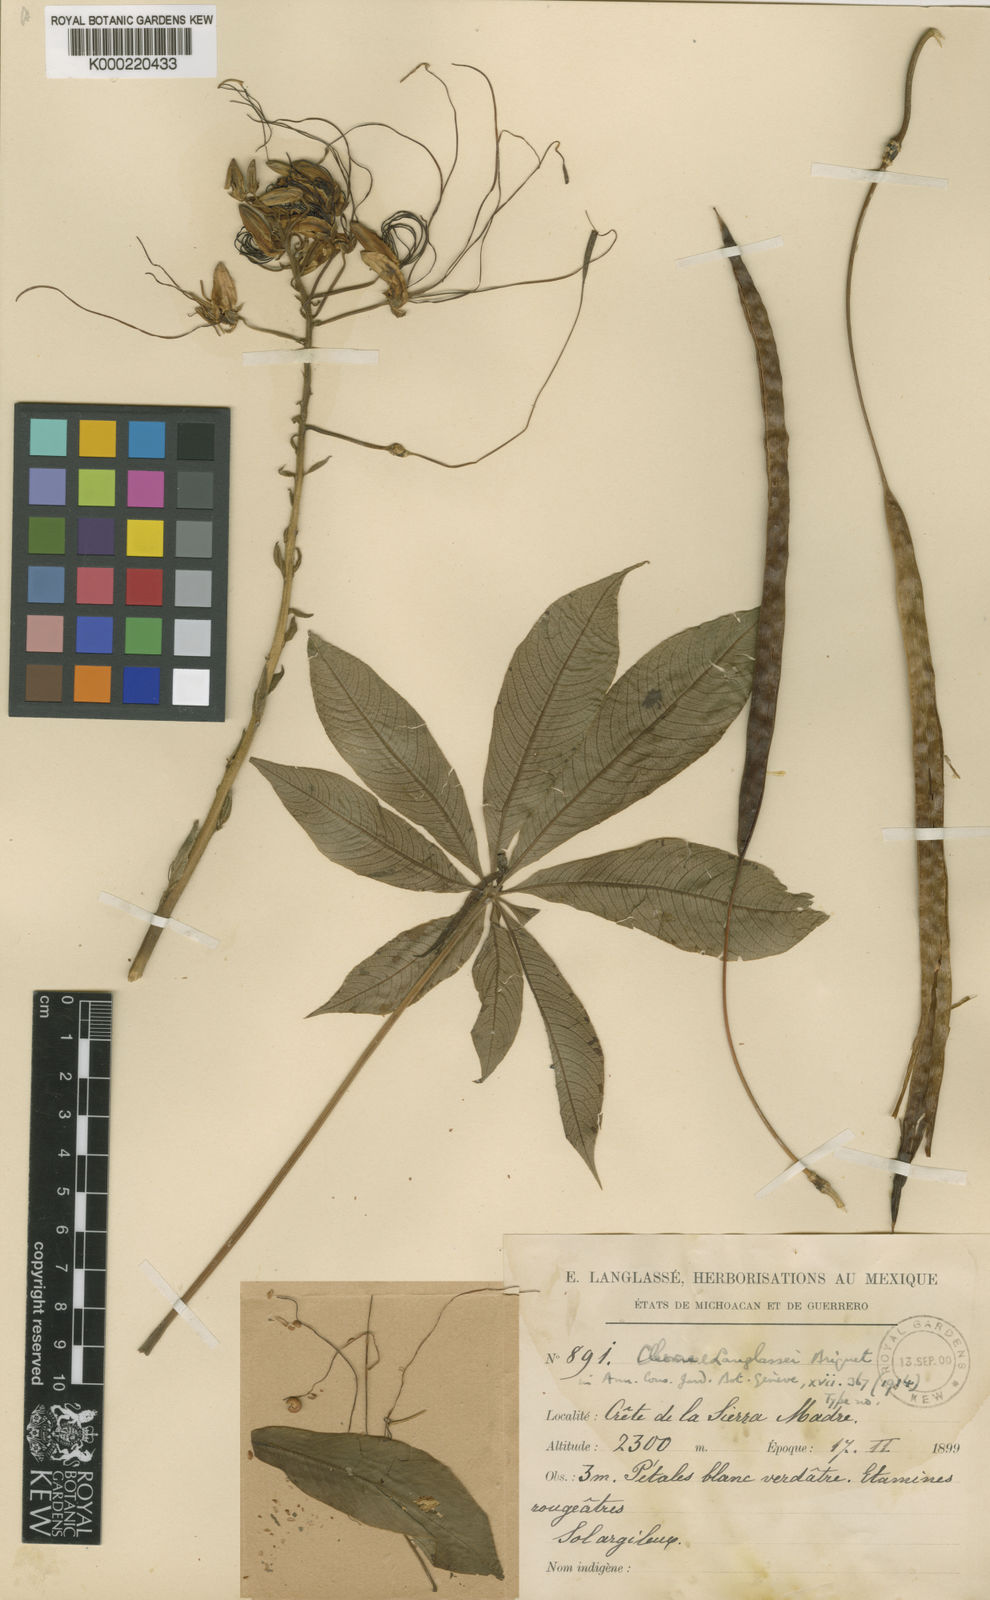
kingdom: Plantae
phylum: Tracheophyta
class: Magnoliopsida
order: Brassicales
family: Cleomaceae
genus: Andinocleome
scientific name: Andinocleome magnifica
